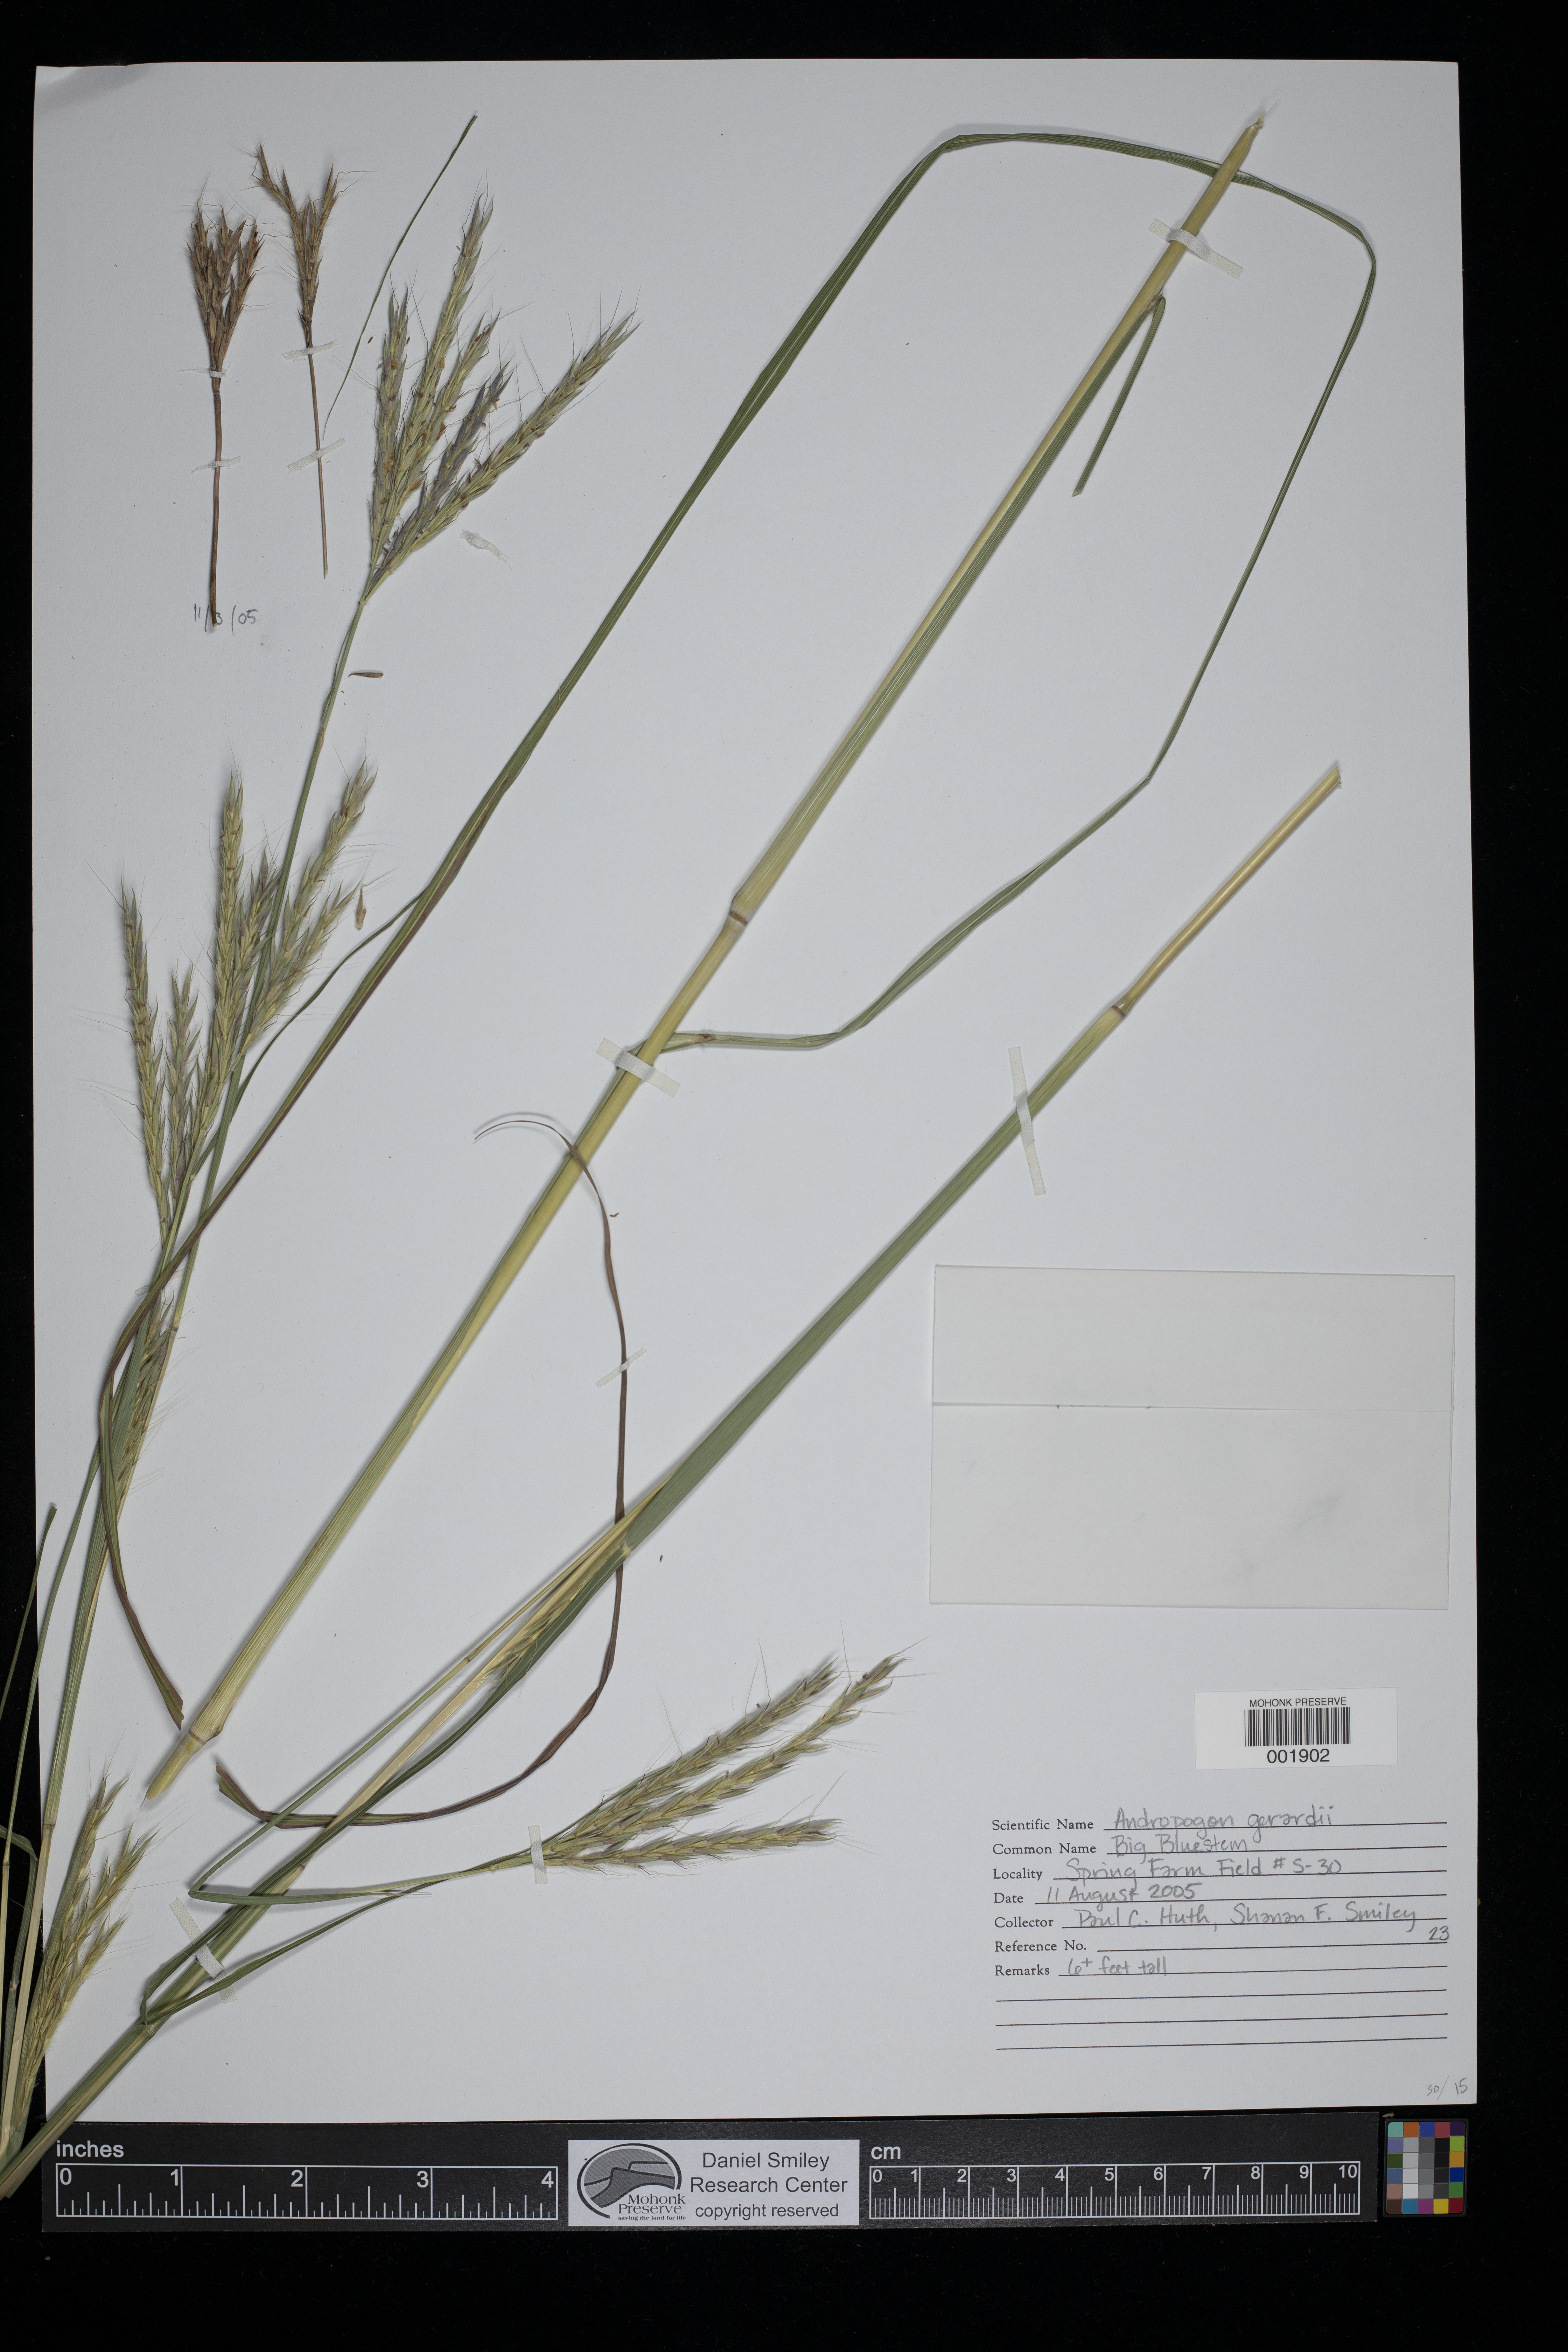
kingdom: Plantae
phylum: Tracheophyta
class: Liliopsida
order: Poales
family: Poaceae
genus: Schizachyrium
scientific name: Schizachyrium scoparium
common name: Little bluestem
